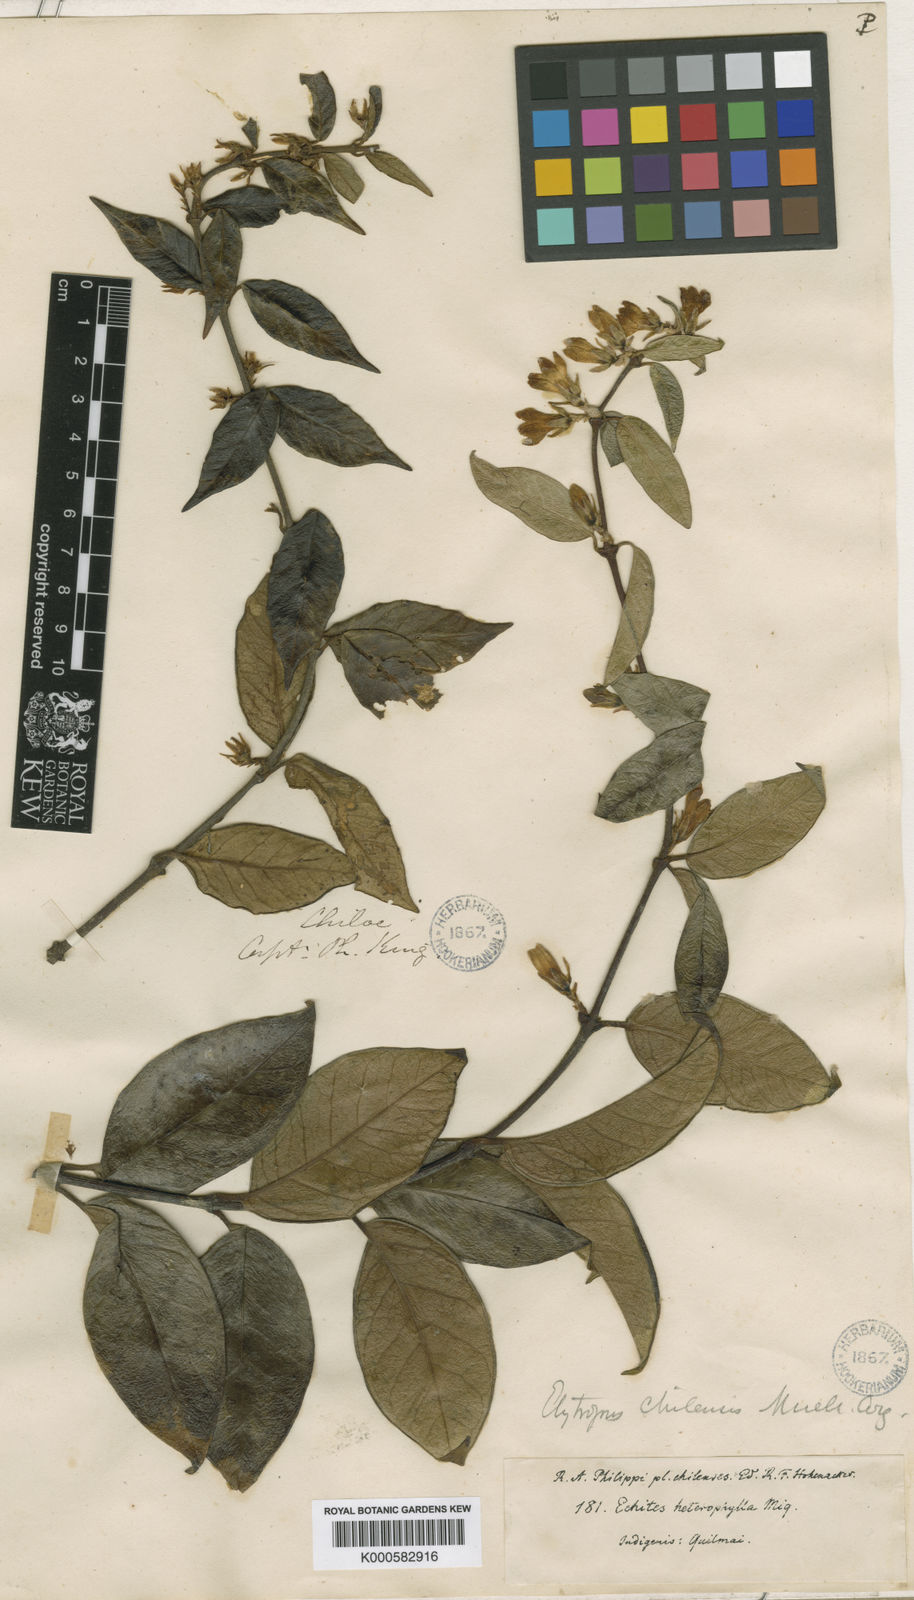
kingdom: Plantae
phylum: Tracheophyta
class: Magnoliopsida
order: Gentianales
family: Apocynaceae
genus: Elytropus
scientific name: Elytropus
